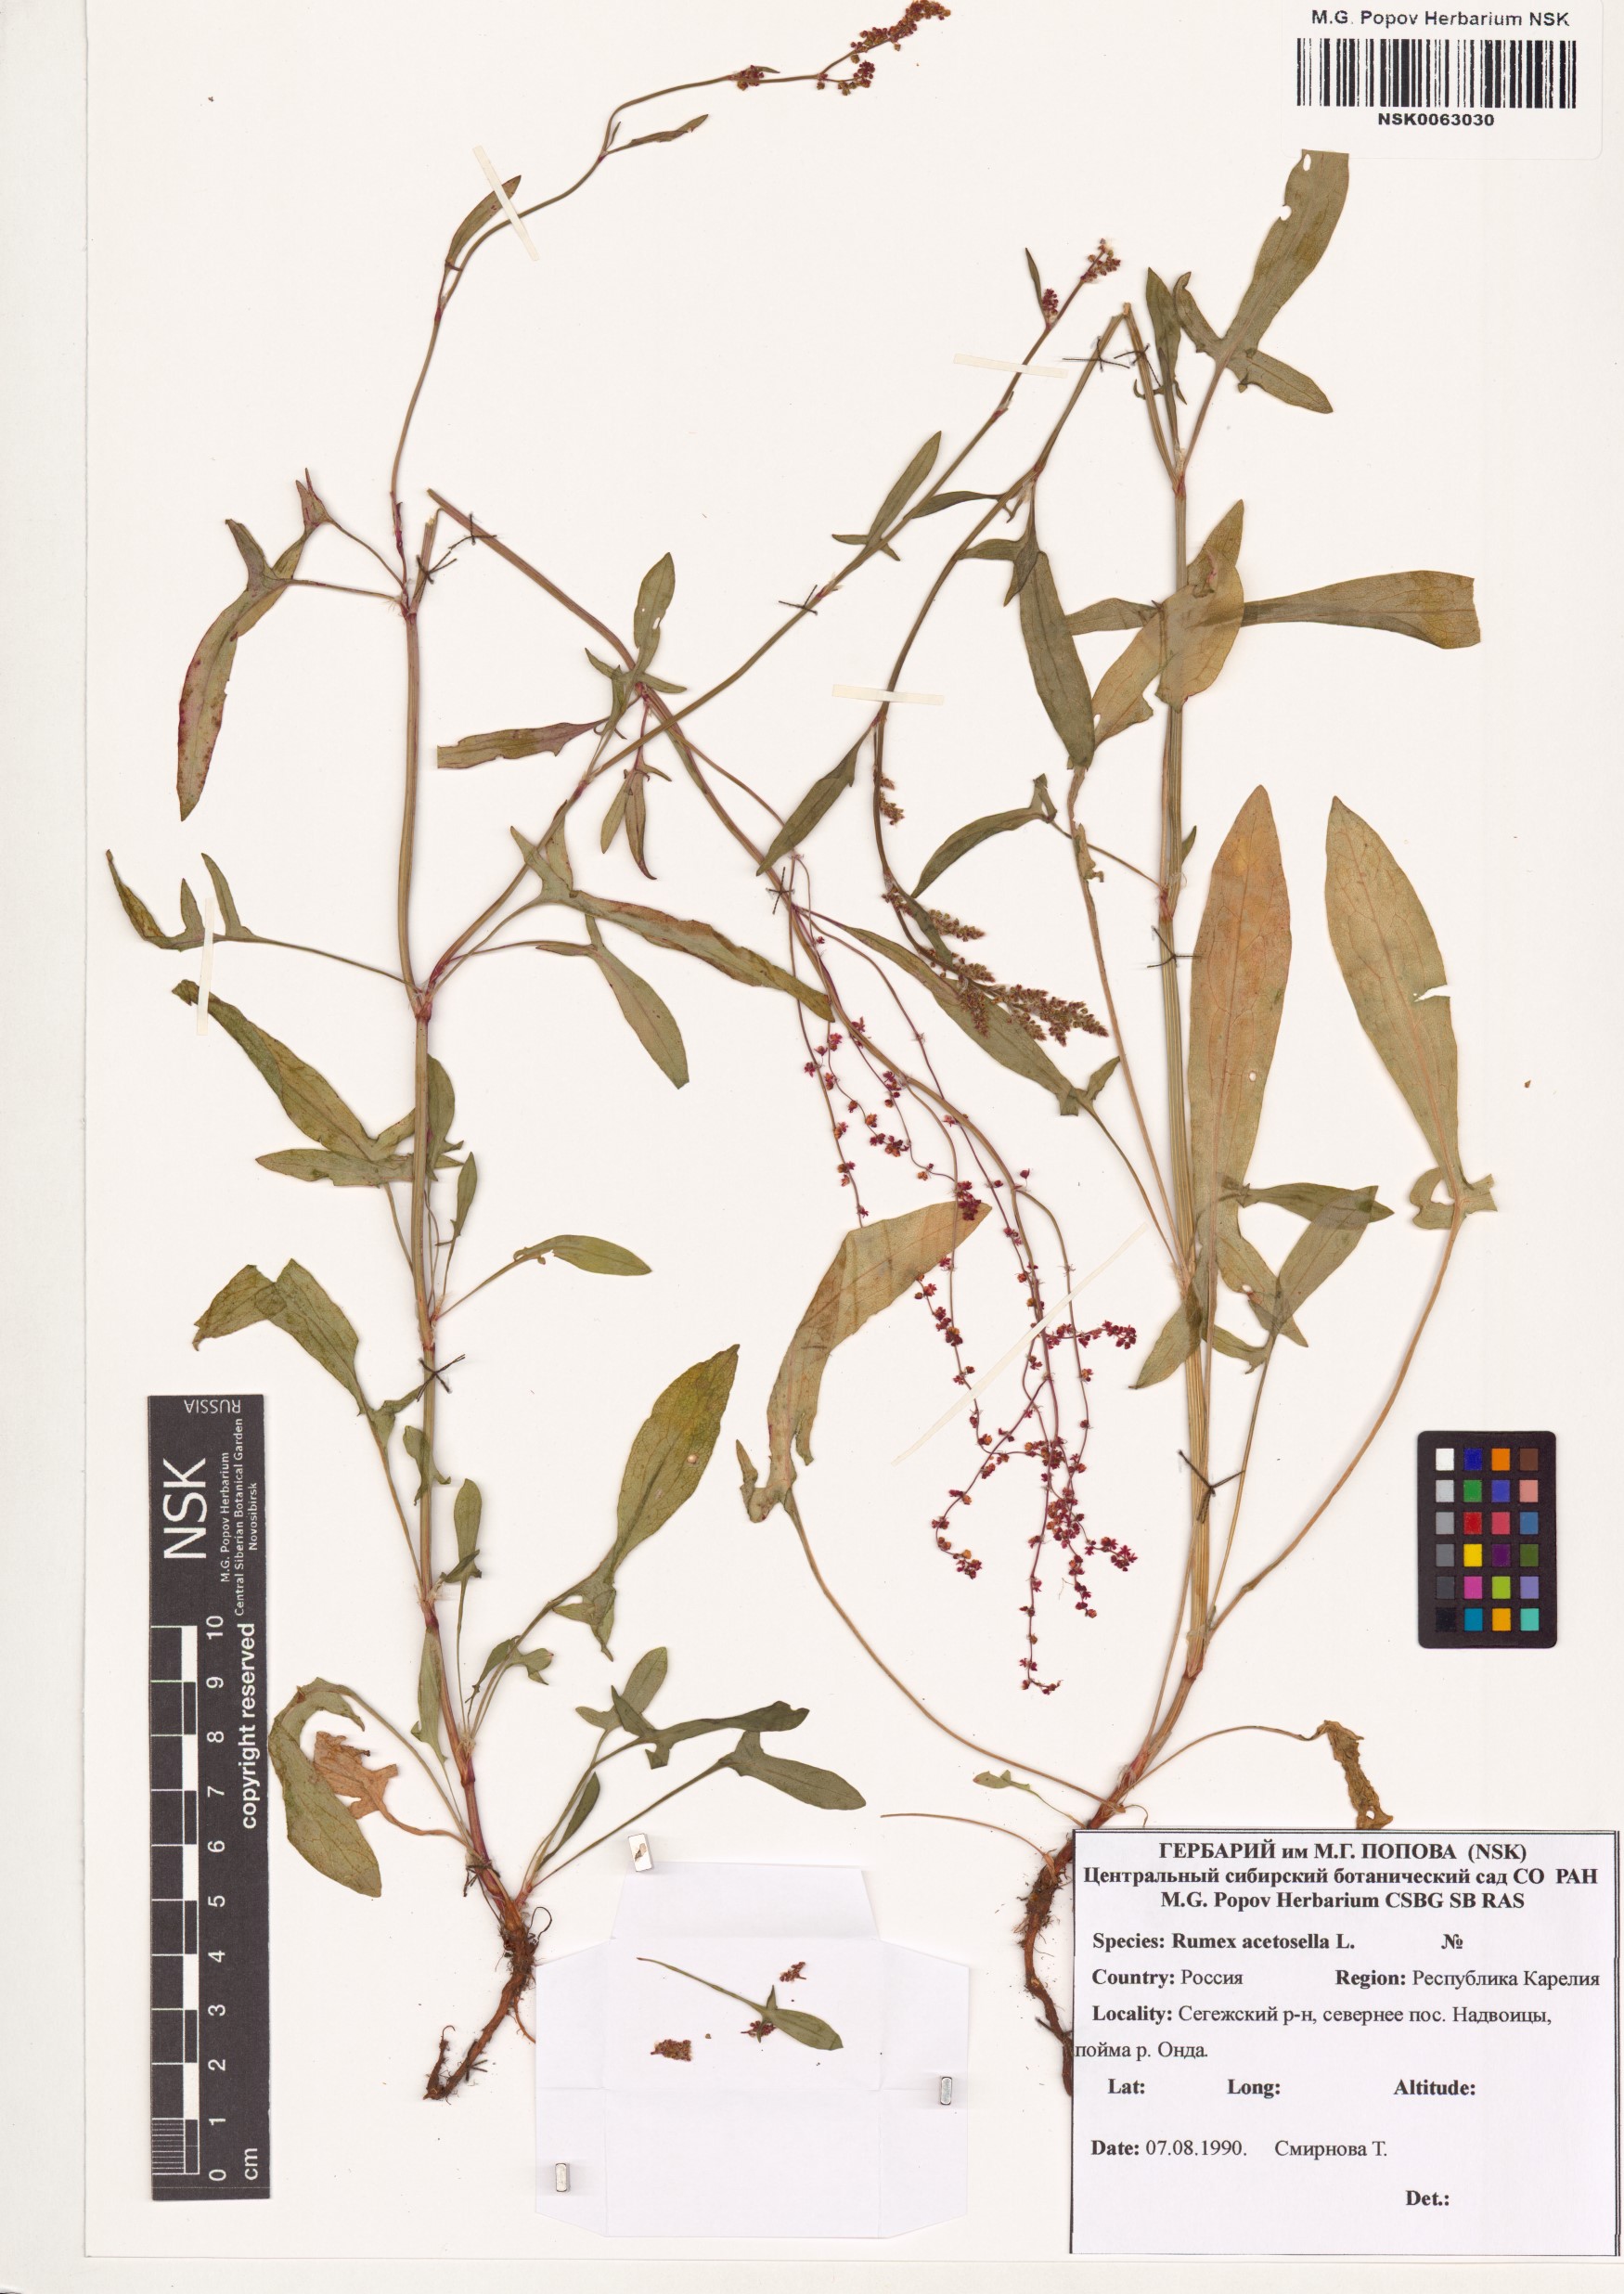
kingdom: Plantae
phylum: Tracheophyta
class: Magnoliopsida
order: Caryophyllales
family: Polygonaceae
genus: Rumex
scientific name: Rumex acetosella
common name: Common sheep sorrel
